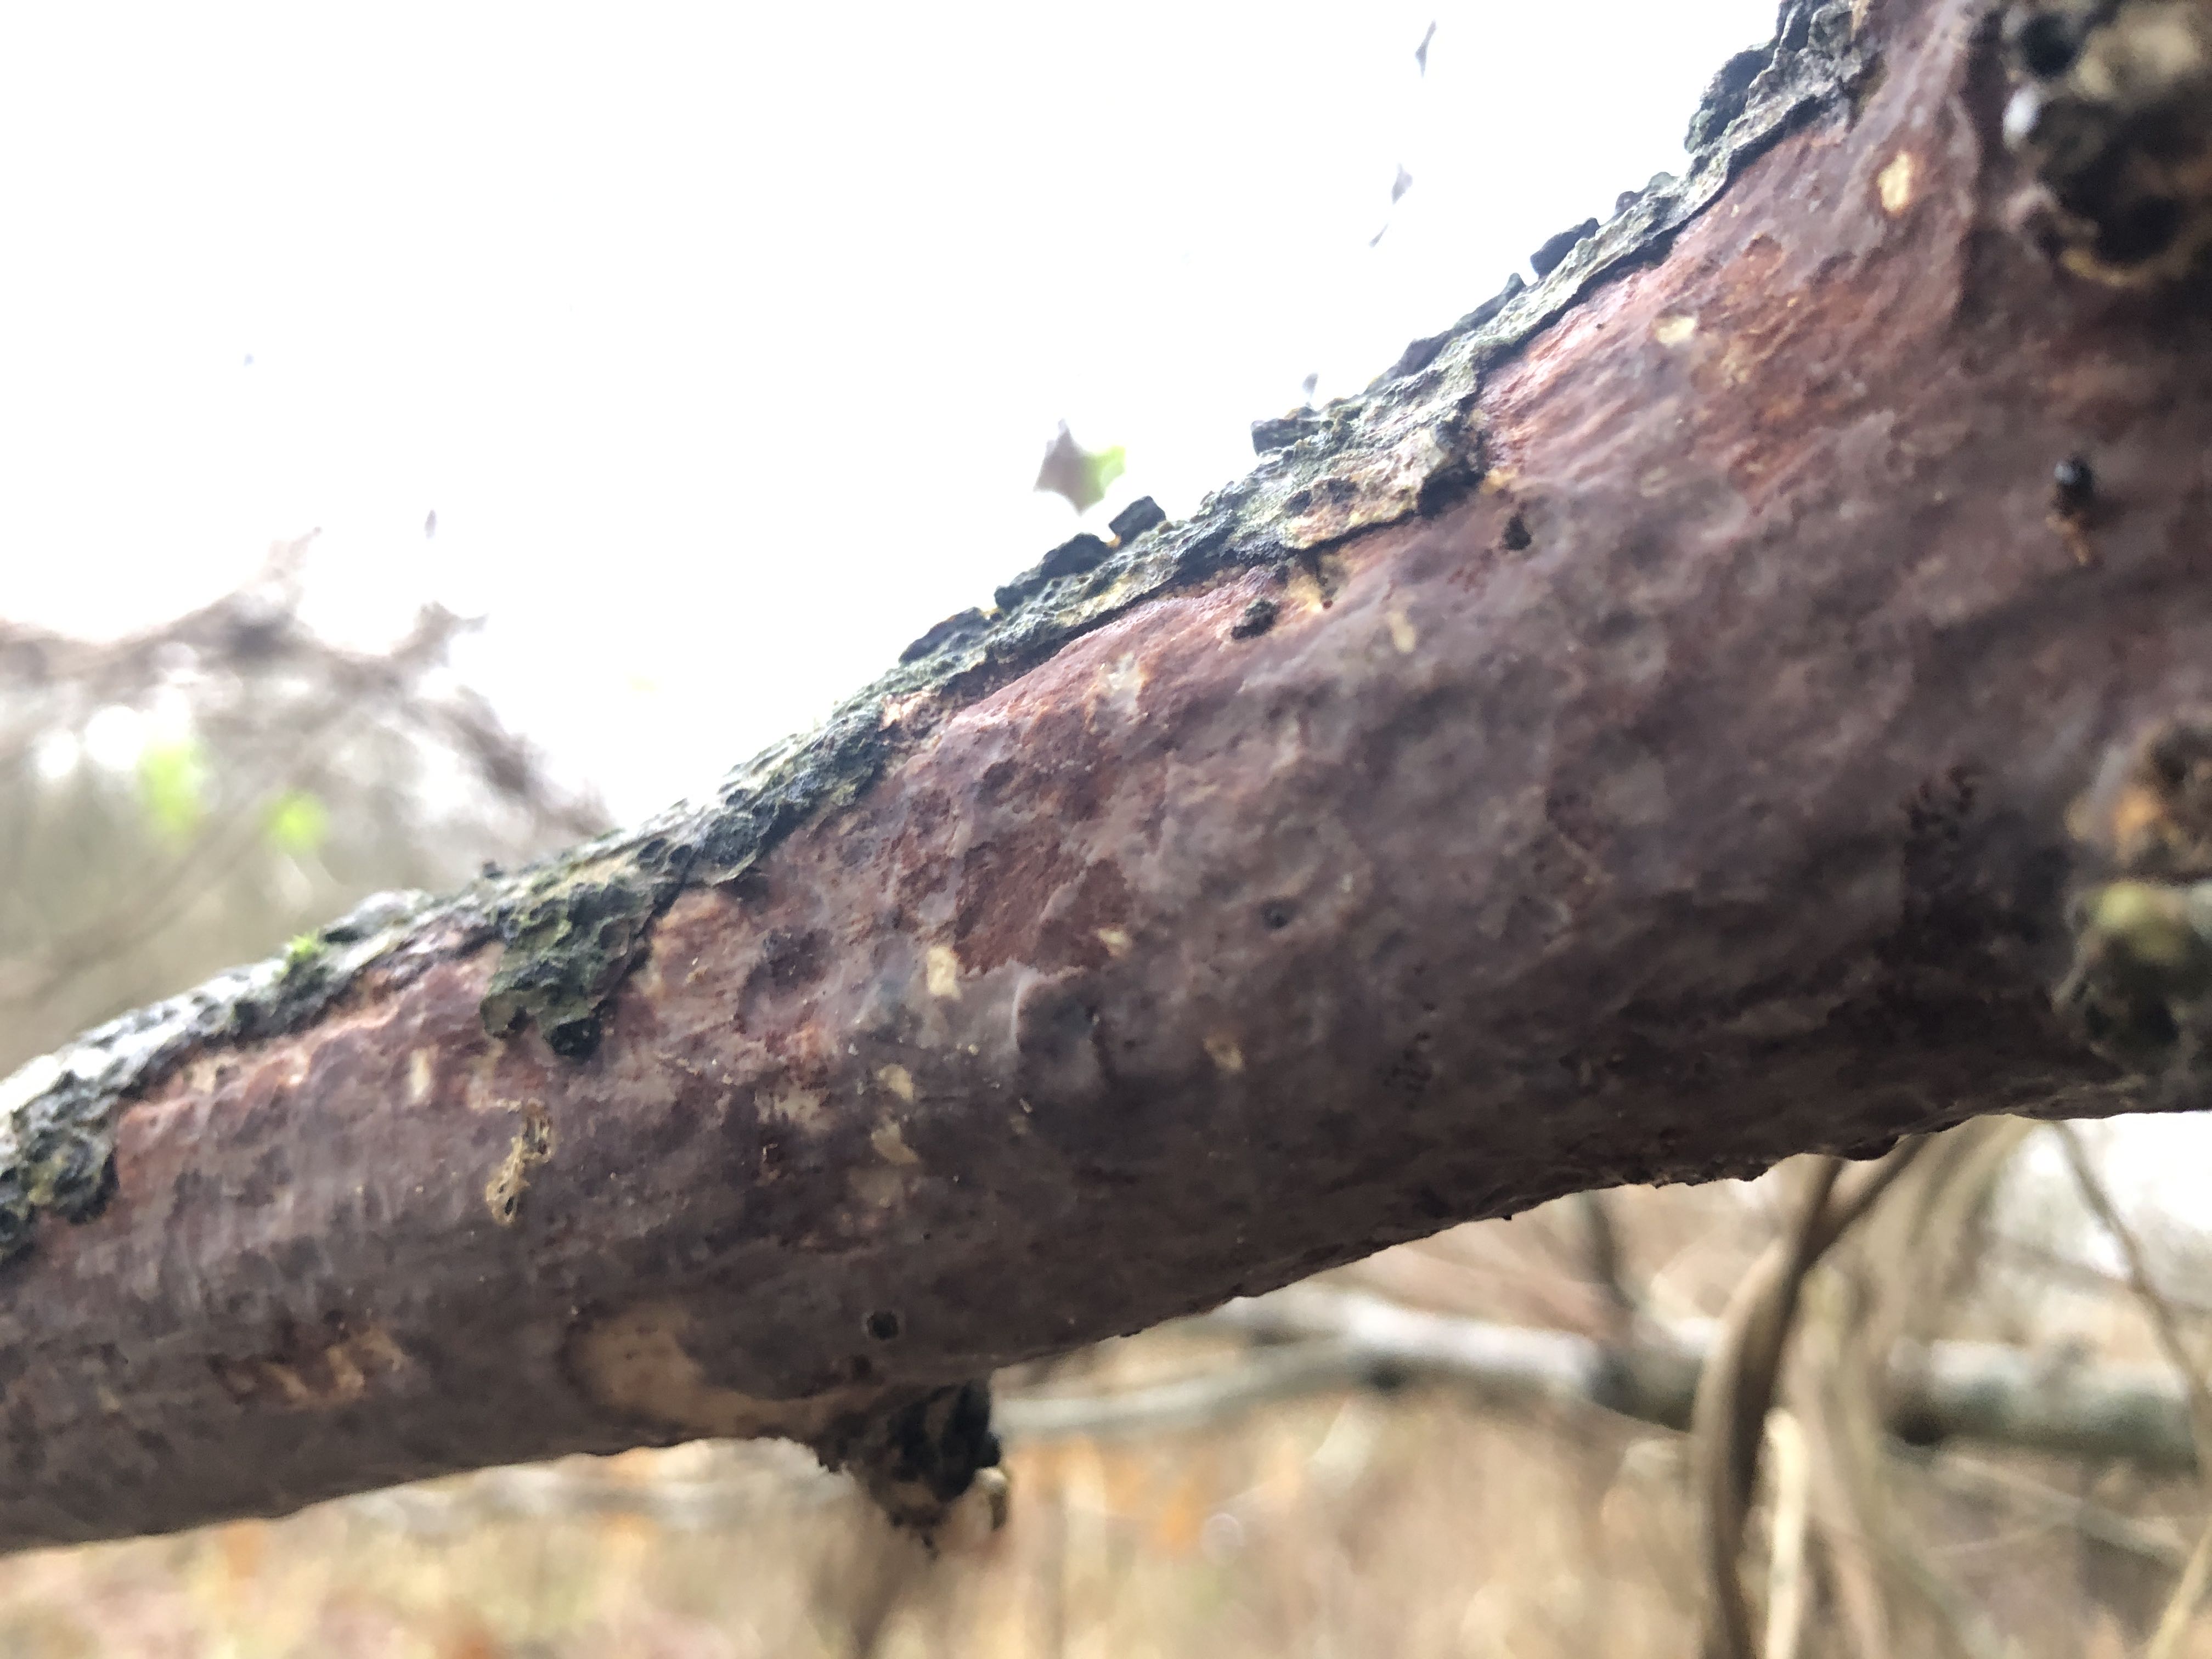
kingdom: Fungi
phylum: Basidiomycota
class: Agaricomycetes
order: Corticiales
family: Vuilleminiaceae
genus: Vuilleminia
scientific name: Vuilleminia comedens
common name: almindelig barksprænger
